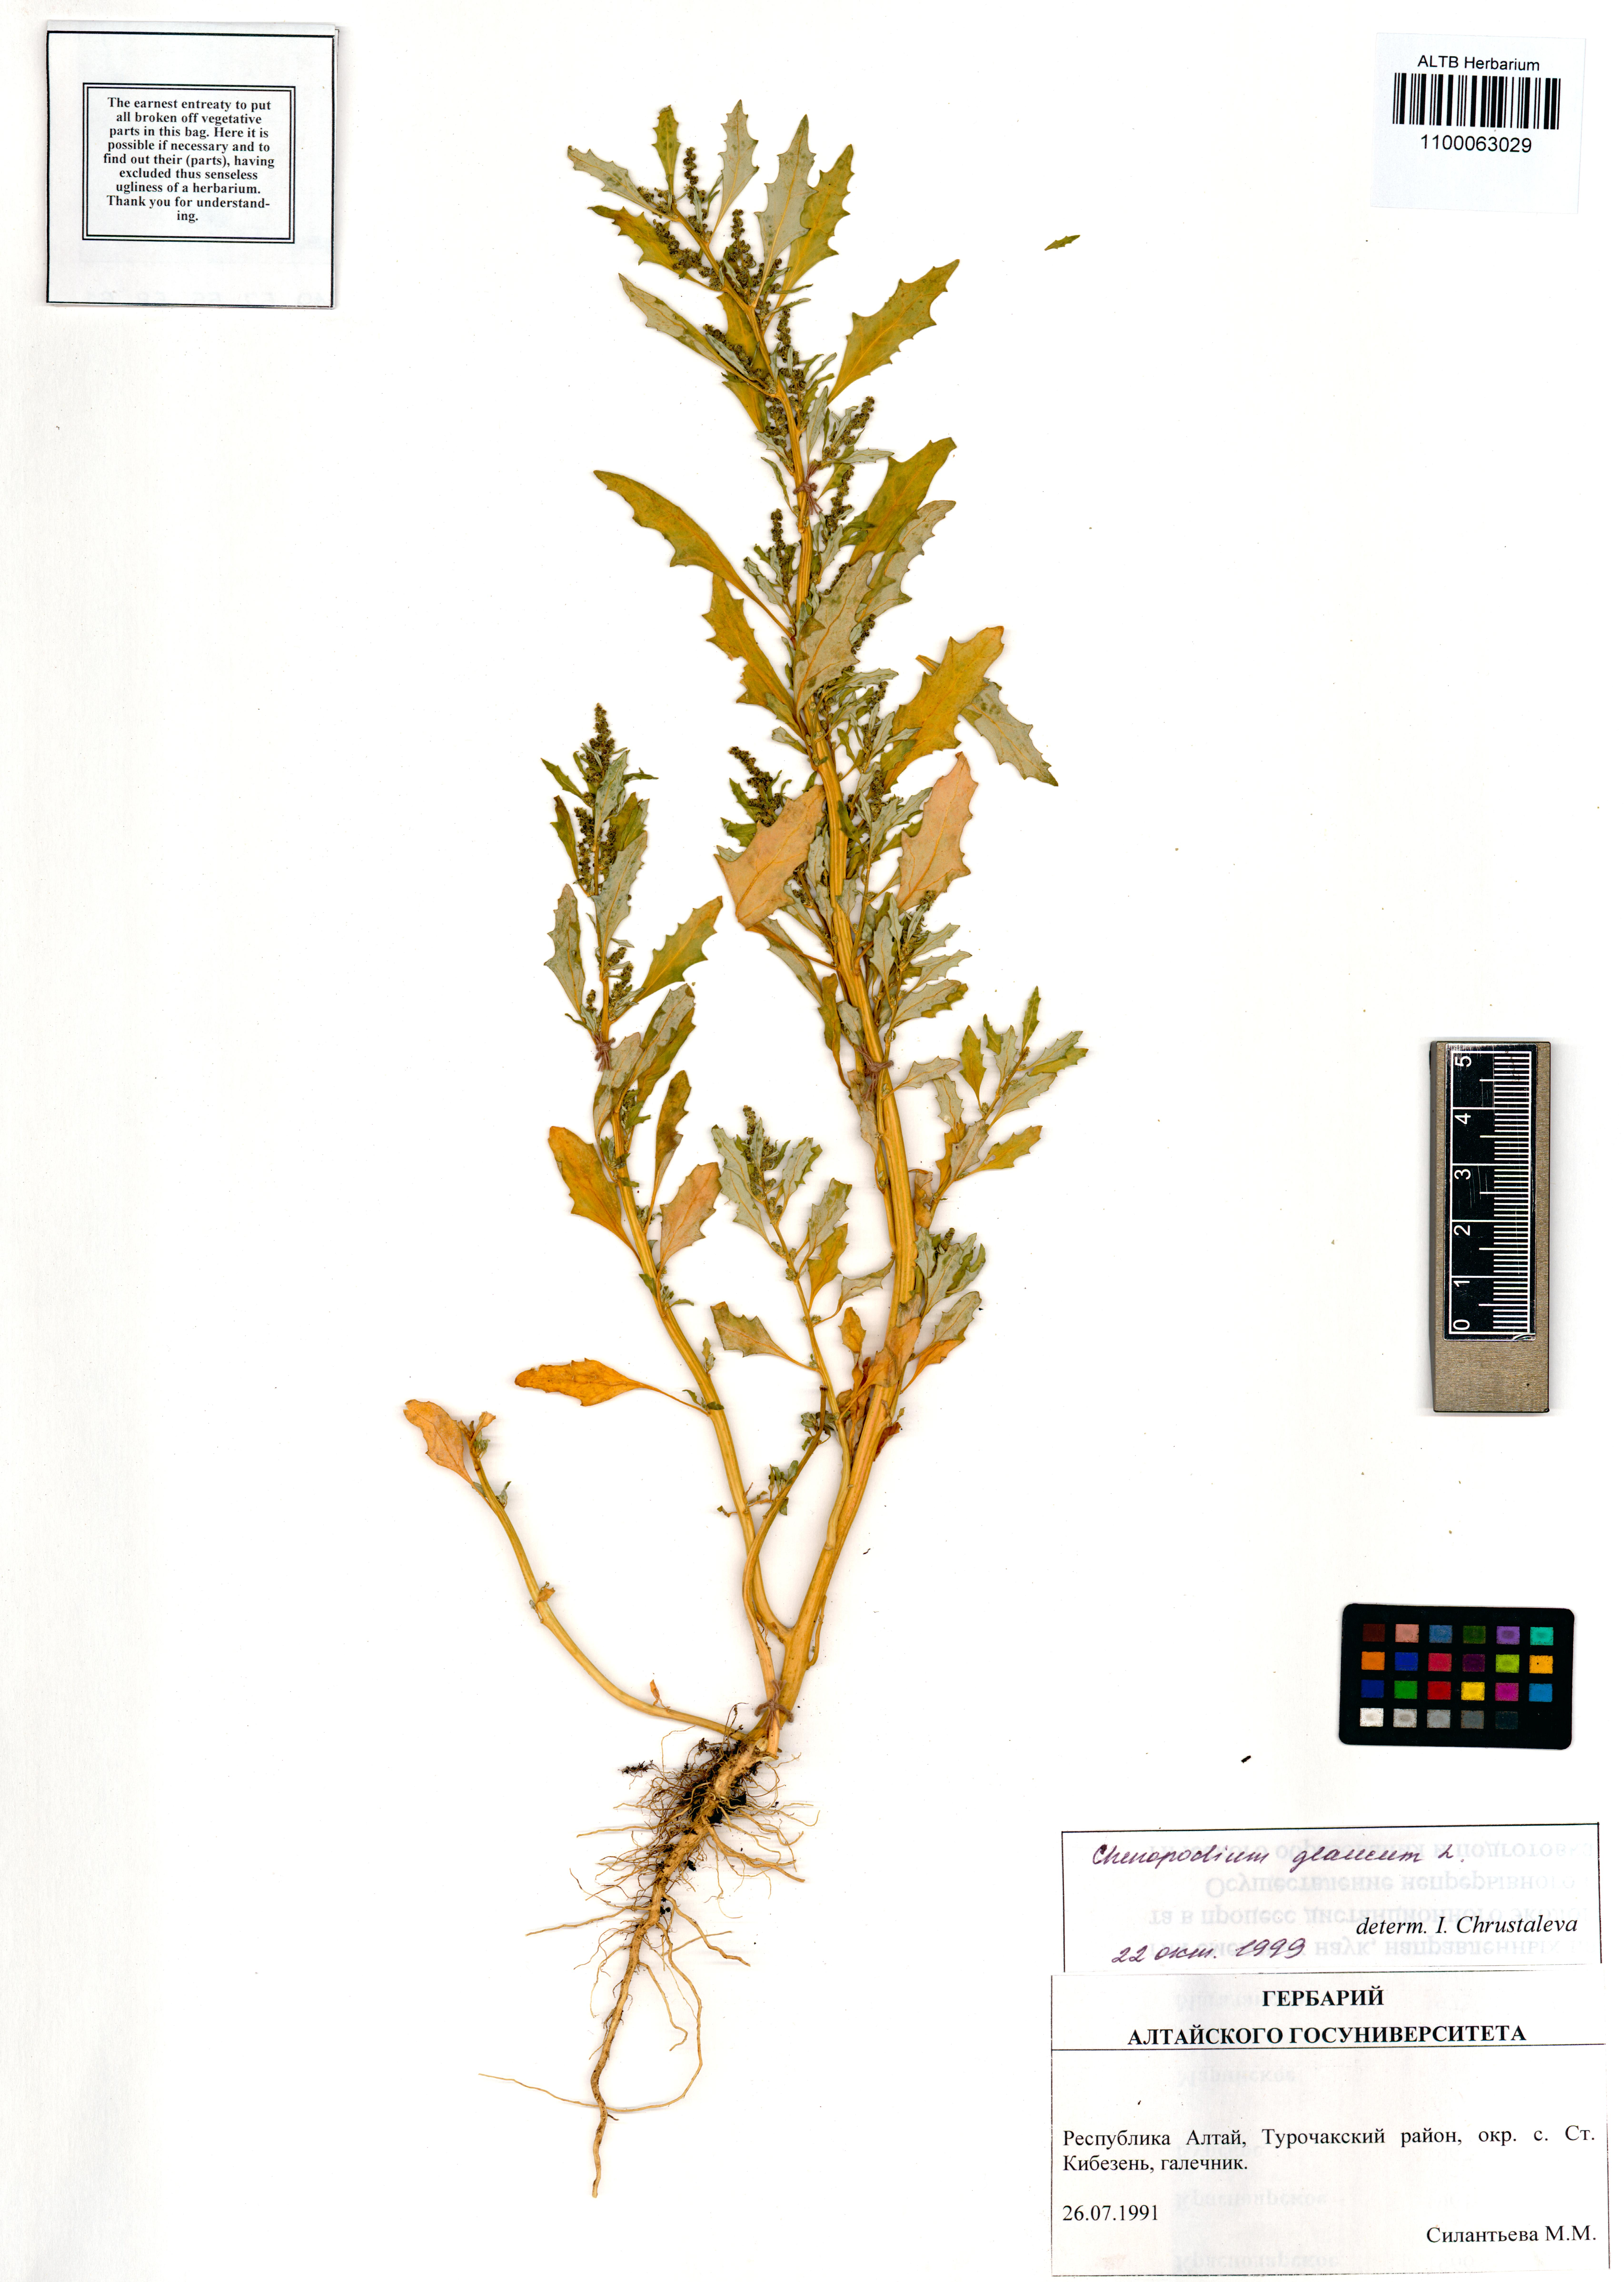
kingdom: Plantae
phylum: Tracheophyta
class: Magnoliopsida
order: Caryophyllales
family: Amaranthaceae
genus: Oxybasis
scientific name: Oxybasis glauca
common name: Glaucous goosefoot
